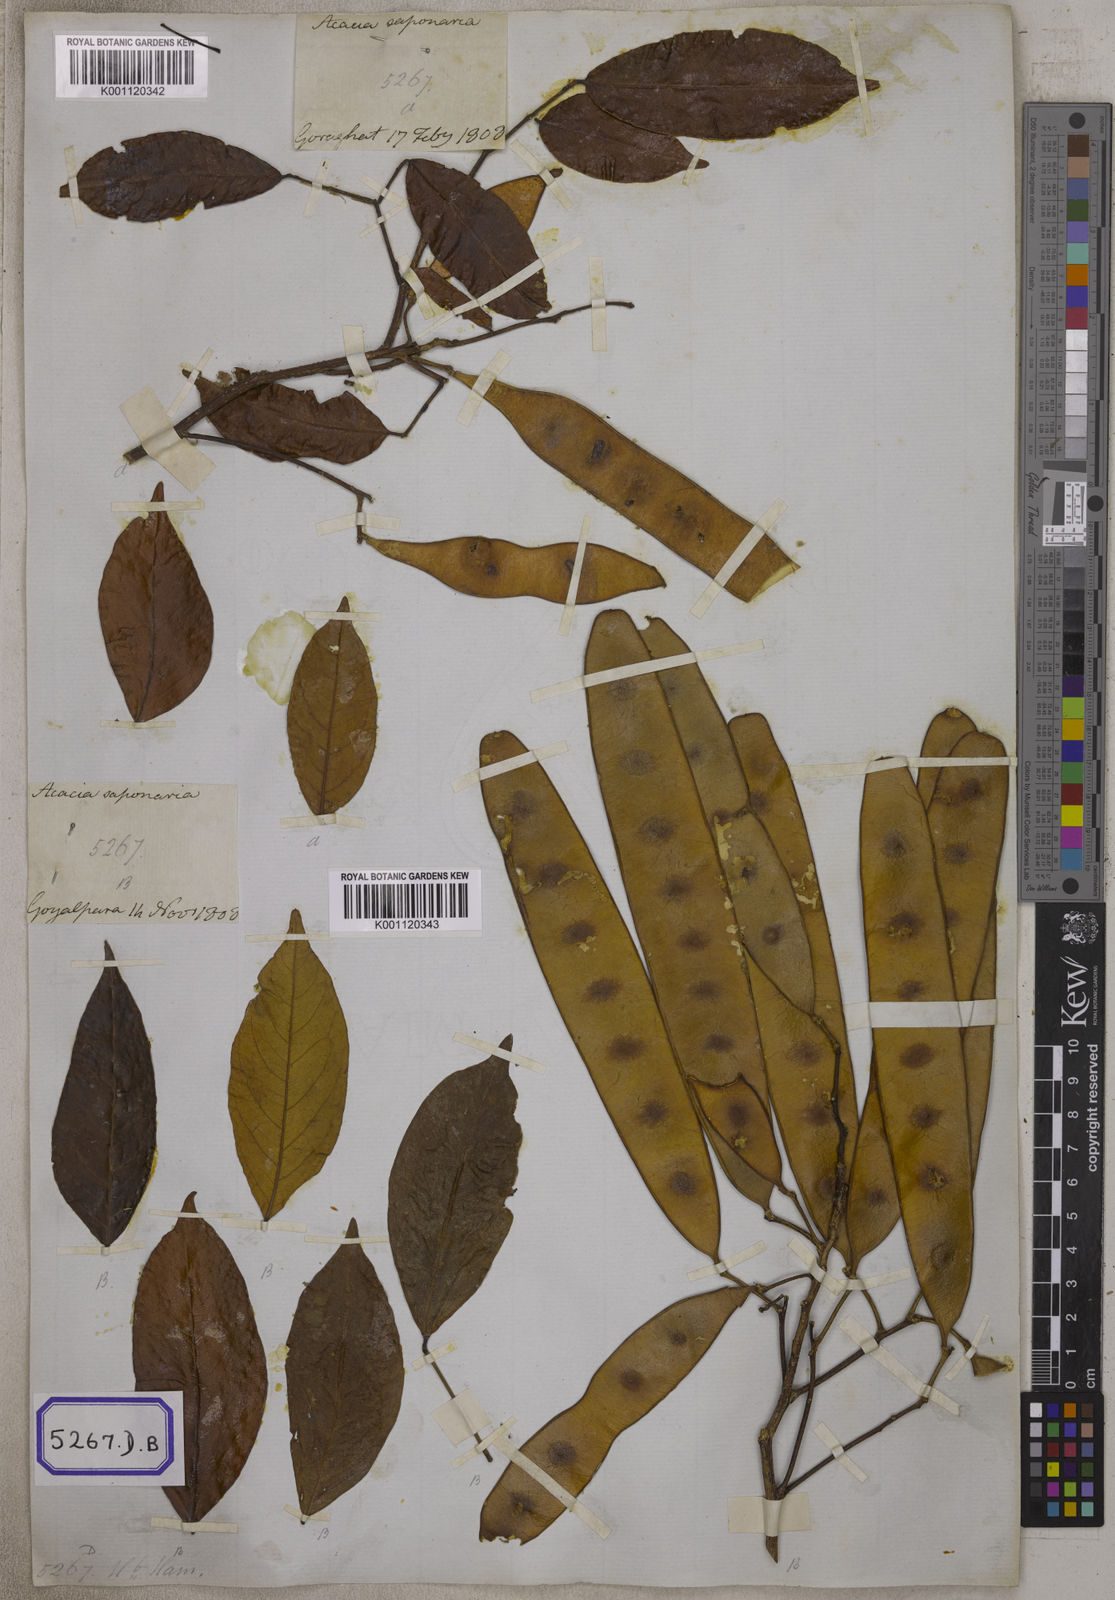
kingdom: Plantae
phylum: Tracheophyta
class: Magnoliopsida
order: Fabales
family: Fabaceae
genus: Albizia
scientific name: Albizia lucidior
